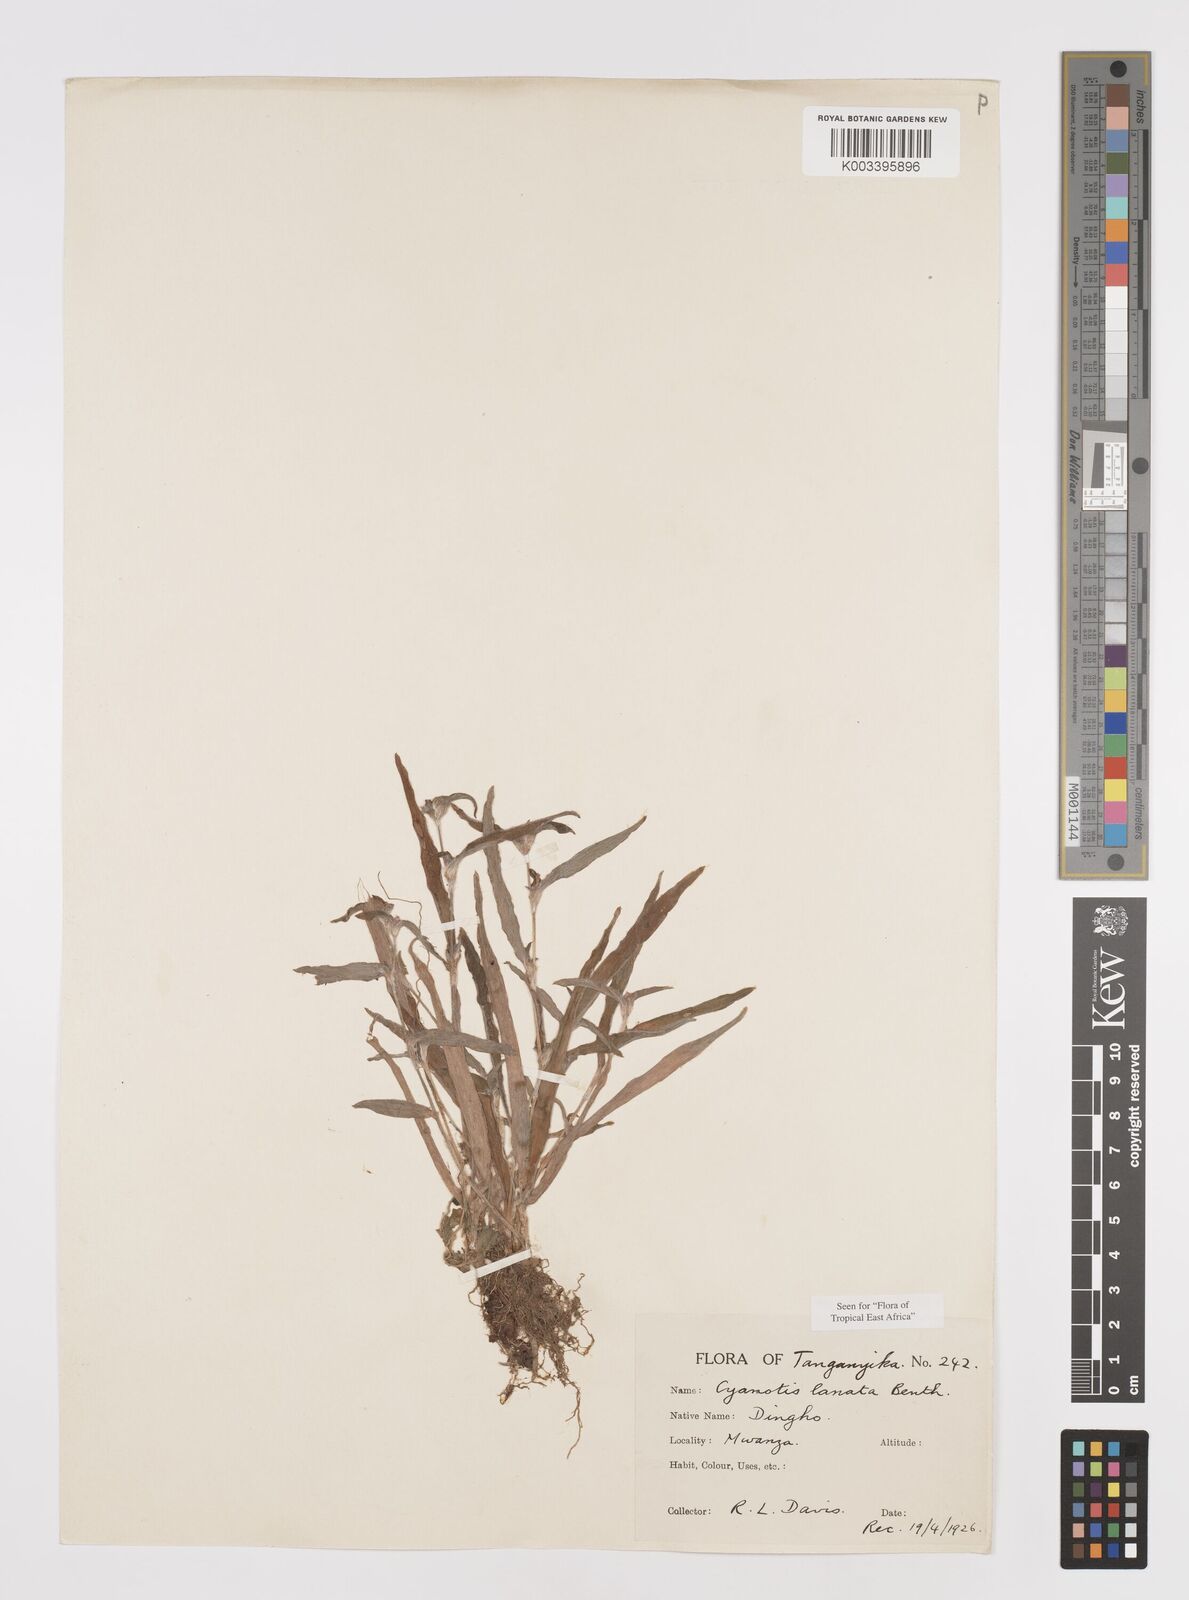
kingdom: Plantae
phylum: Tracheophyta
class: Liliopsida
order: Commelinales
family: Commelinaceae
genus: Cyanotis
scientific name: Cyanotis lanata
